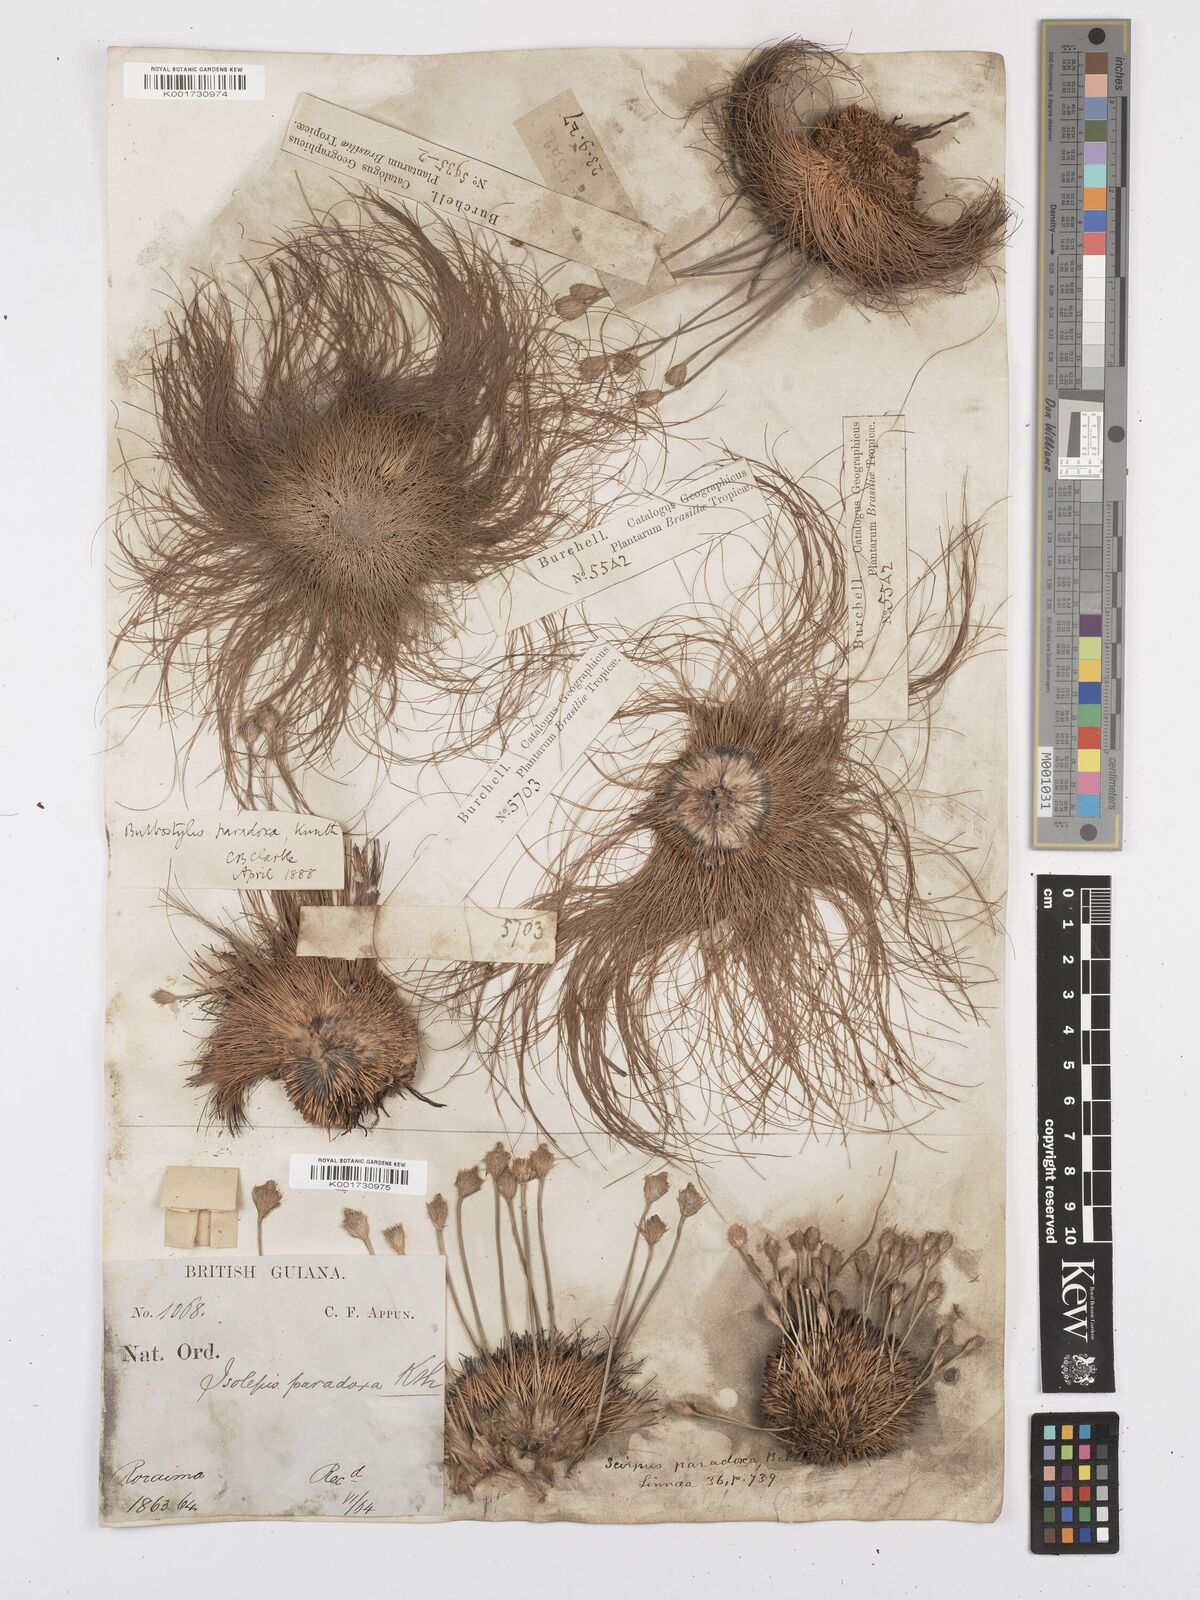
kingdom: Plantae
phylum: Tracheophyta
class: Liliopsida
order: Poales
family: Cyperaceae
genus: Bulbostylis
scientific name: Bulbostylis paradoxa
